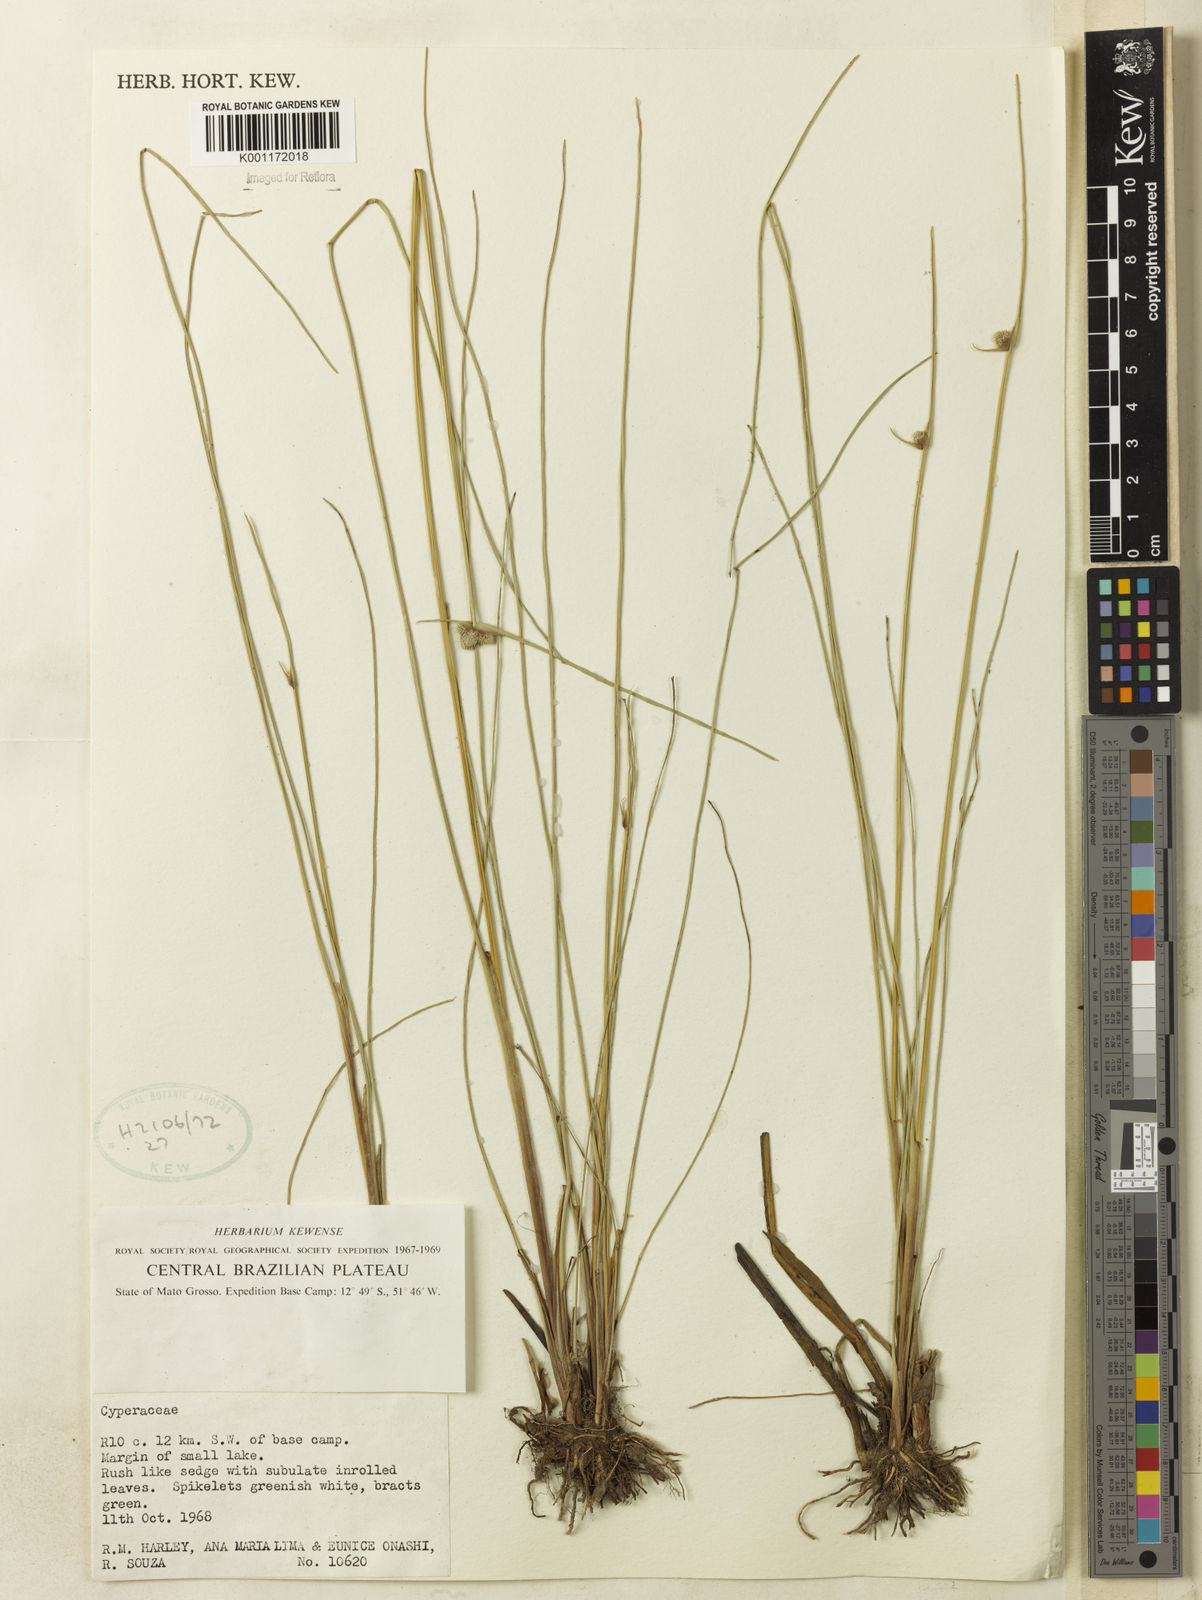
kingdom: Plantae
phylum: Tracheophyta
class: Liliopsida
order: Poales
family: Cyperaceae
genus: Cyperus
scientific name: Cyperus sellowianus
